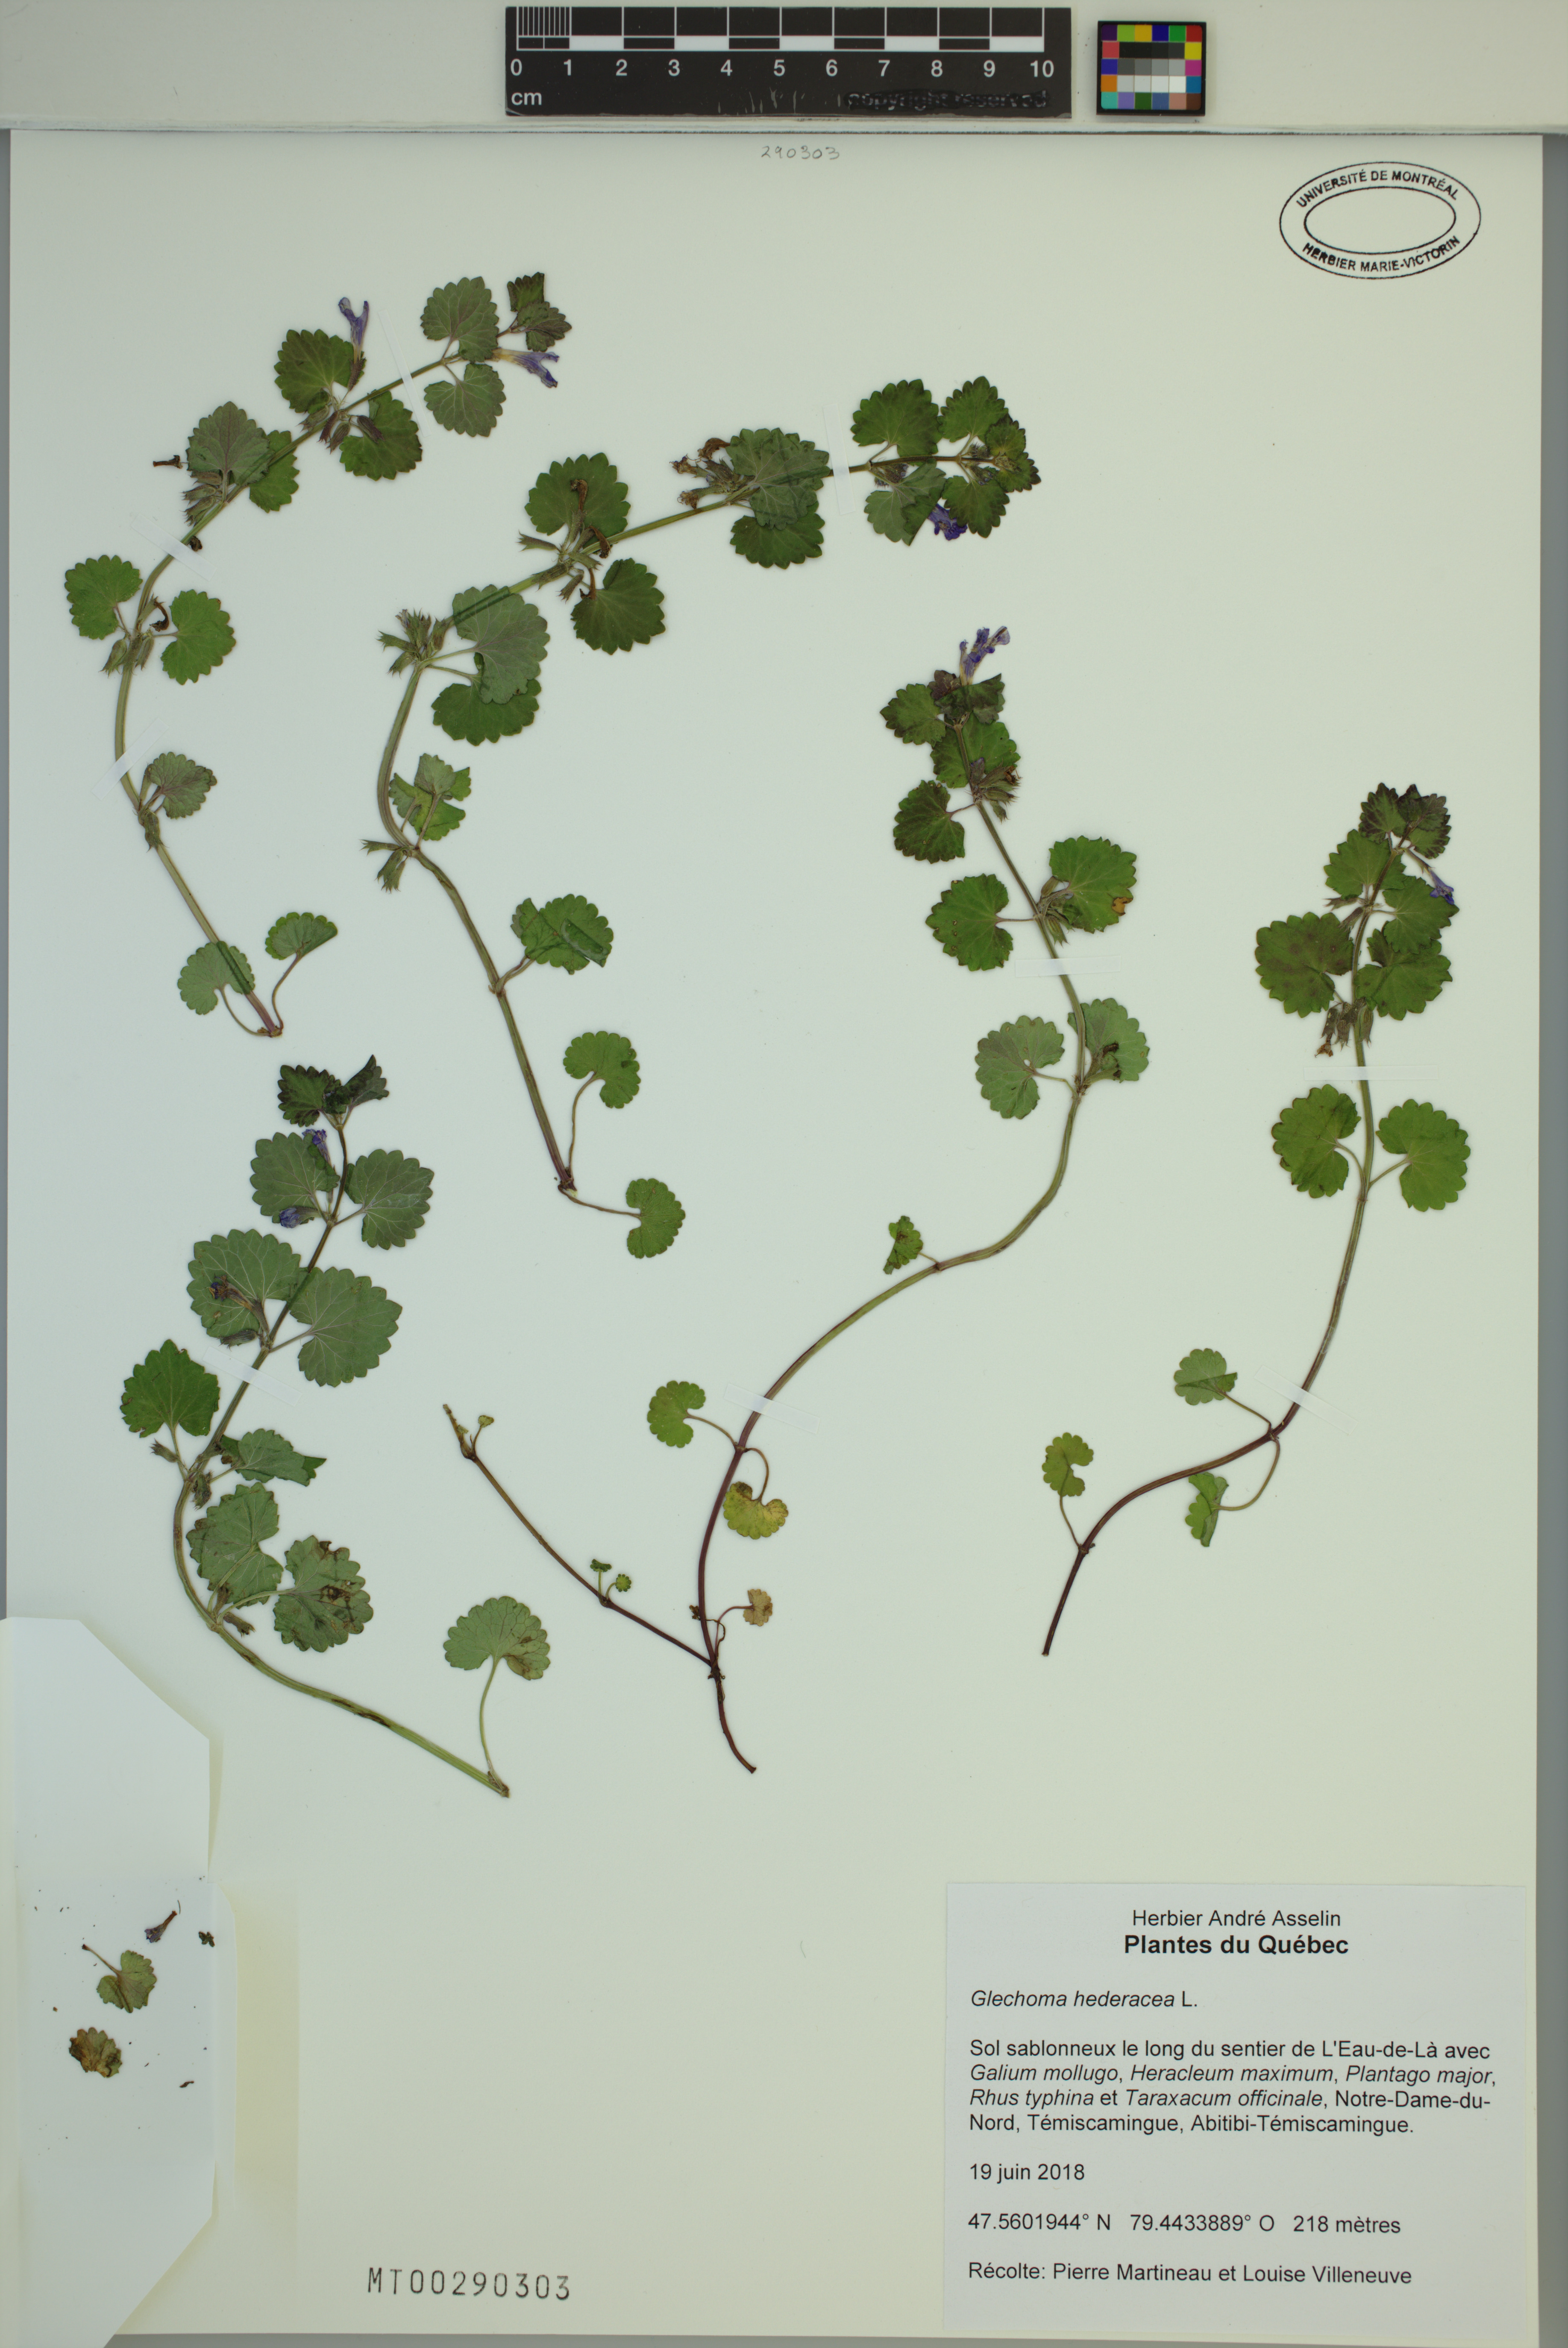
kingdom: Plantae
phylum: Tracheophyta
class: Magnoliopsida
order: Lamiales
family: Lamiaceae
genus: Glechoma
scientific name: Glechoma hederacea
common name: Ground ivy
